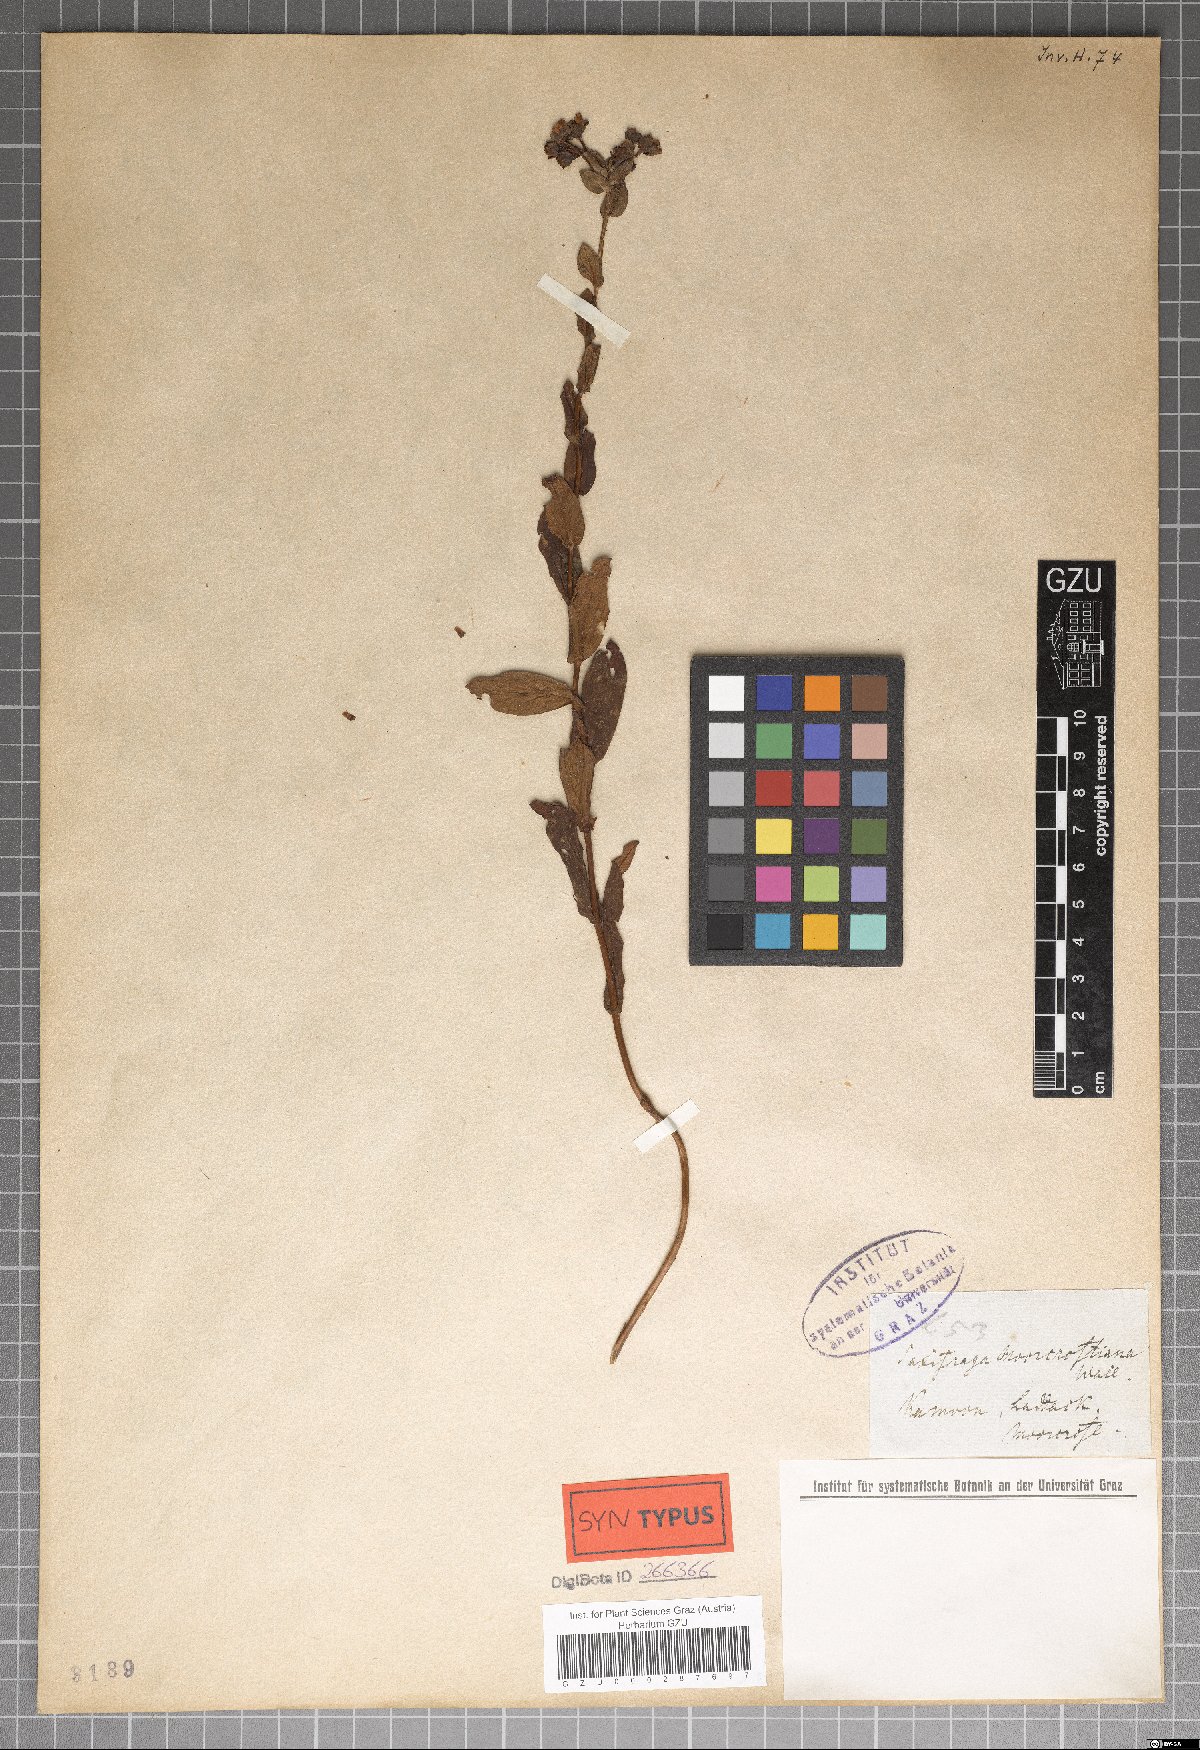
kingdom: Plantae
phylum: Tracheophyta
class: Magnoliopsida
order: Saxifragales
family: Saxifragaceae
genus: Saxifraga
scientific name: Saxifraga moorcroftiana
